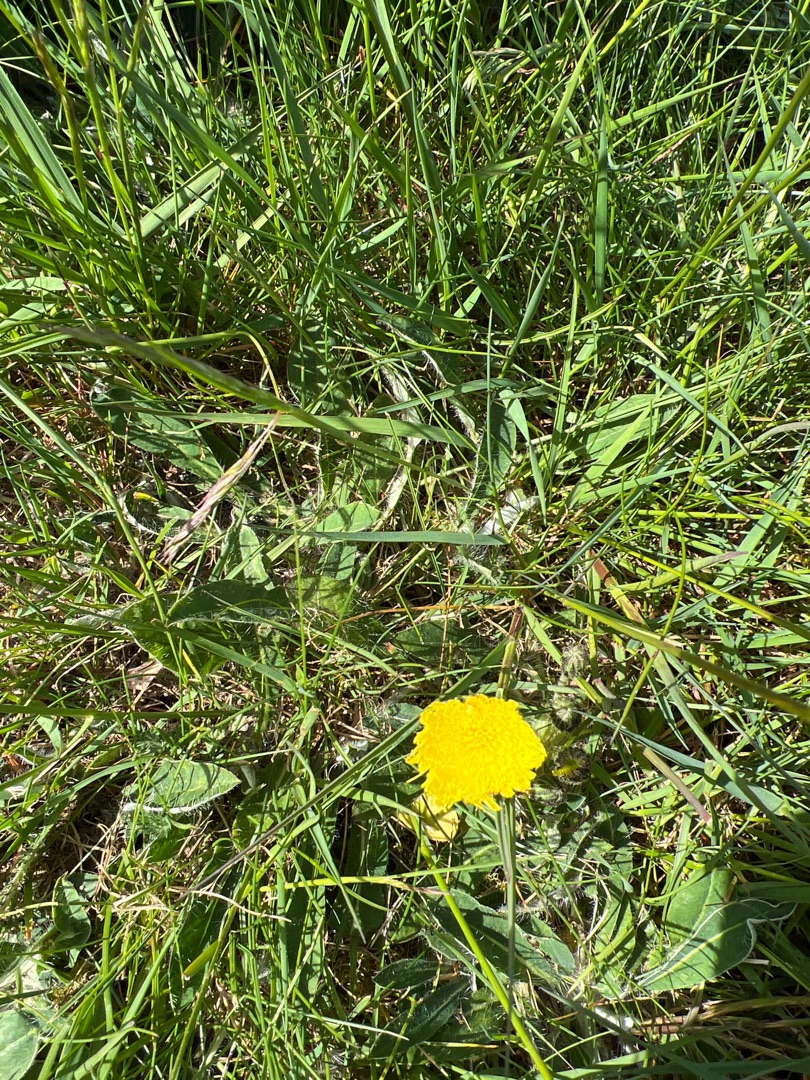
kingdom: Plantae
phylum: Tracheophyta
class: Magnoliopsida
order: Asterales
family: Asteraceae
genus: Pilosella
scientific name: Pilosella officinarum
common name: Håret høgeurt
